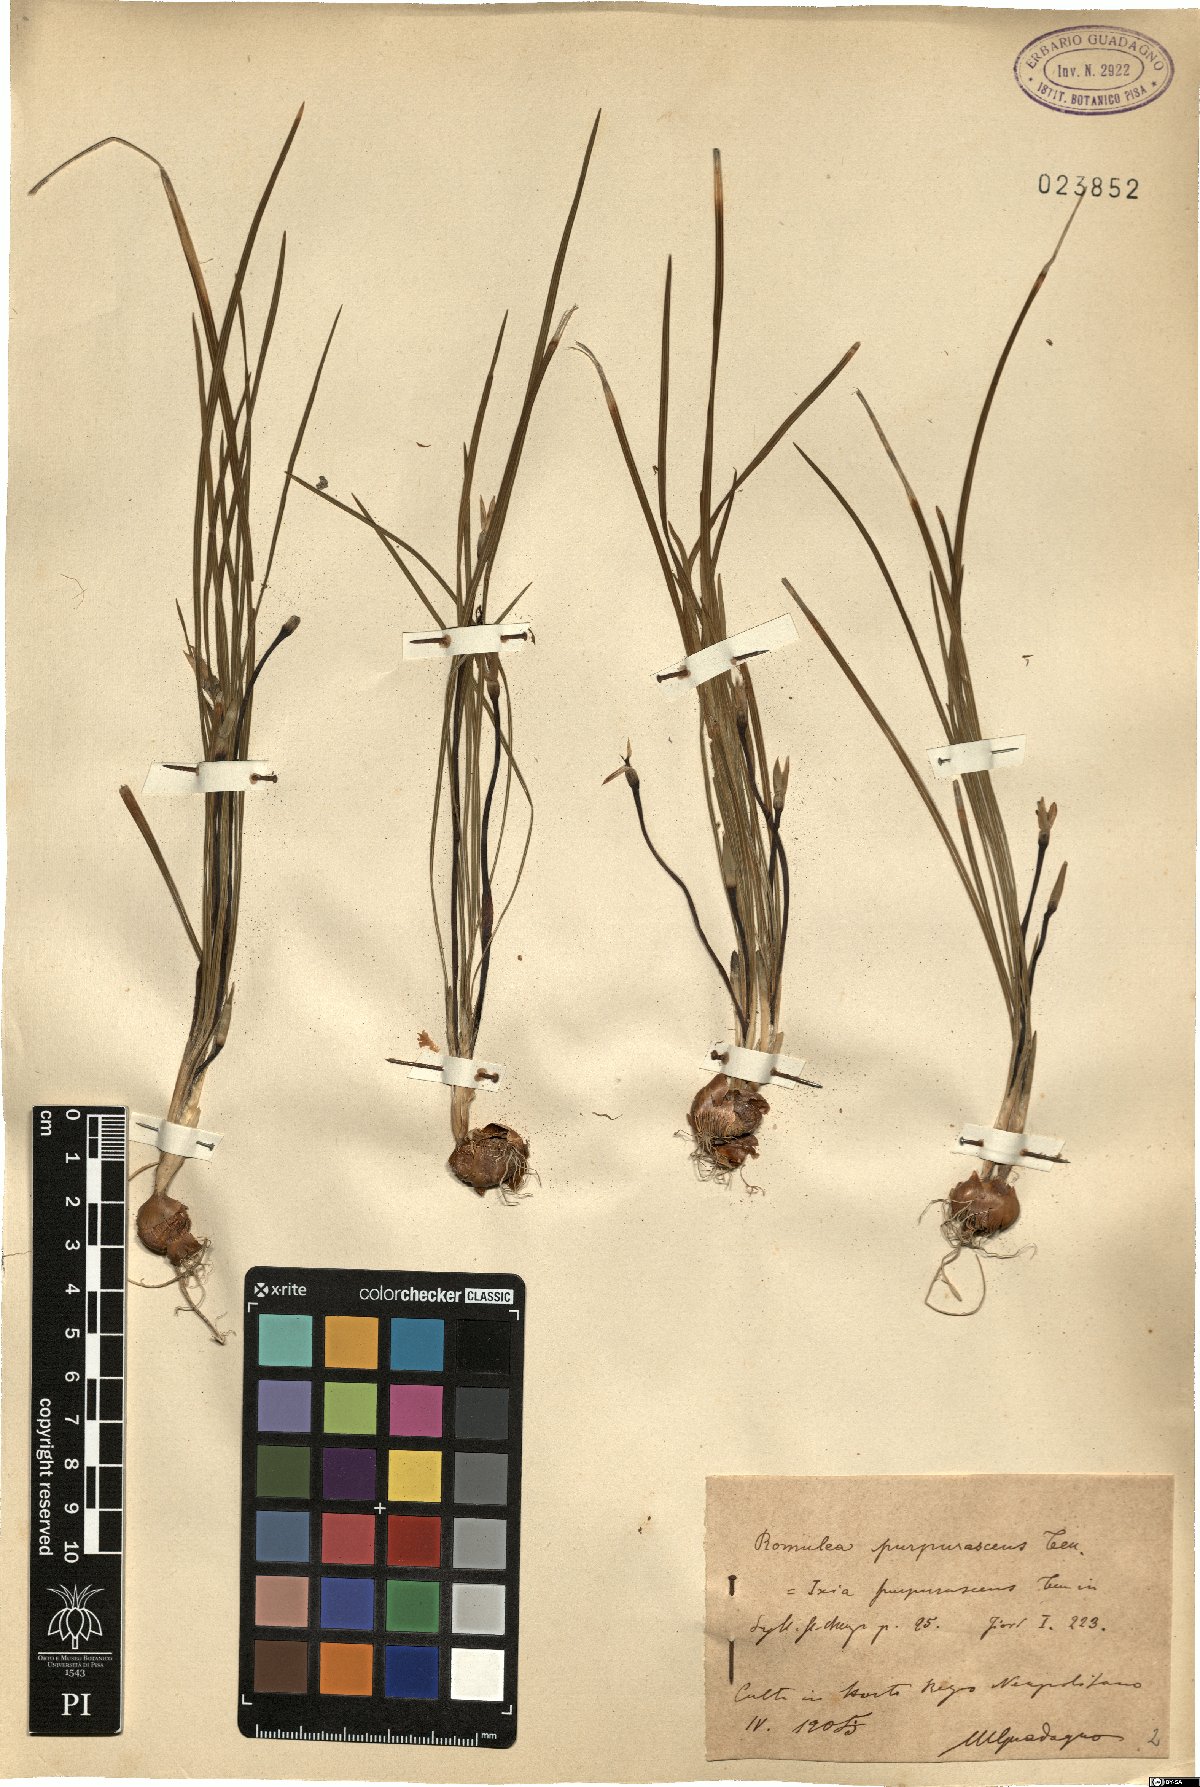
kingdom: Plantae
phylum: Tracheophyta
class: Liliopsida
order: Asparagales
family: Iridaceae
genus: Romulea
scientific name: Romulea bulbocodium
